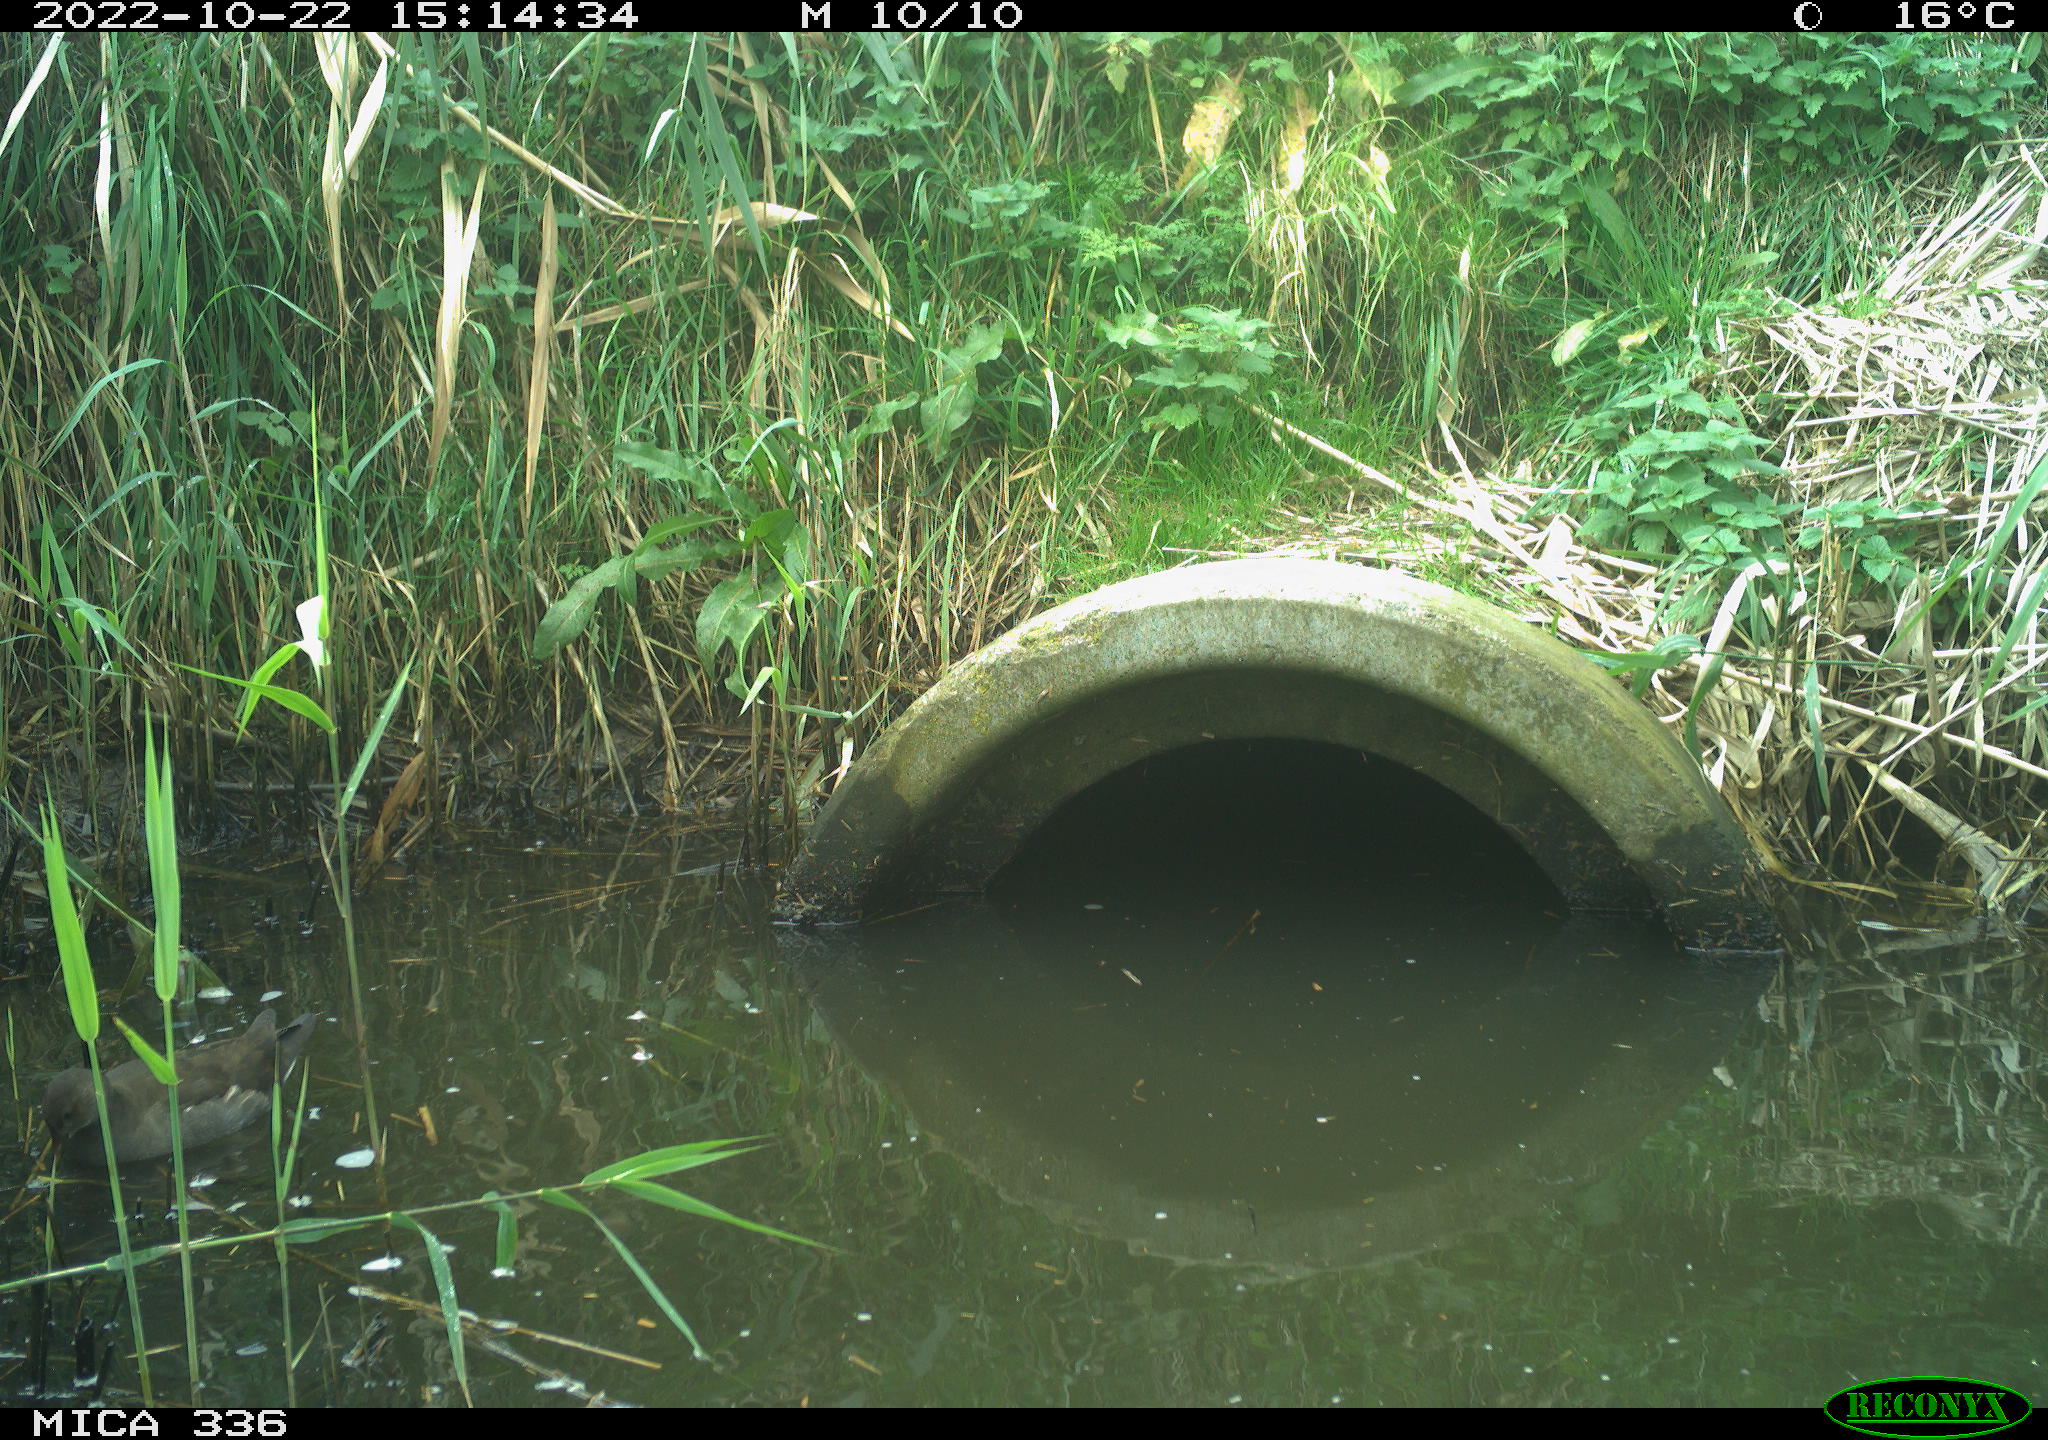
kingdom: Animalia
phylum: Chordata
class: Aves
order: Gruiformes
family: Rallidae
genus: Gallinula
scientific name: Gallinula chloropus
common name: Common moorhen
